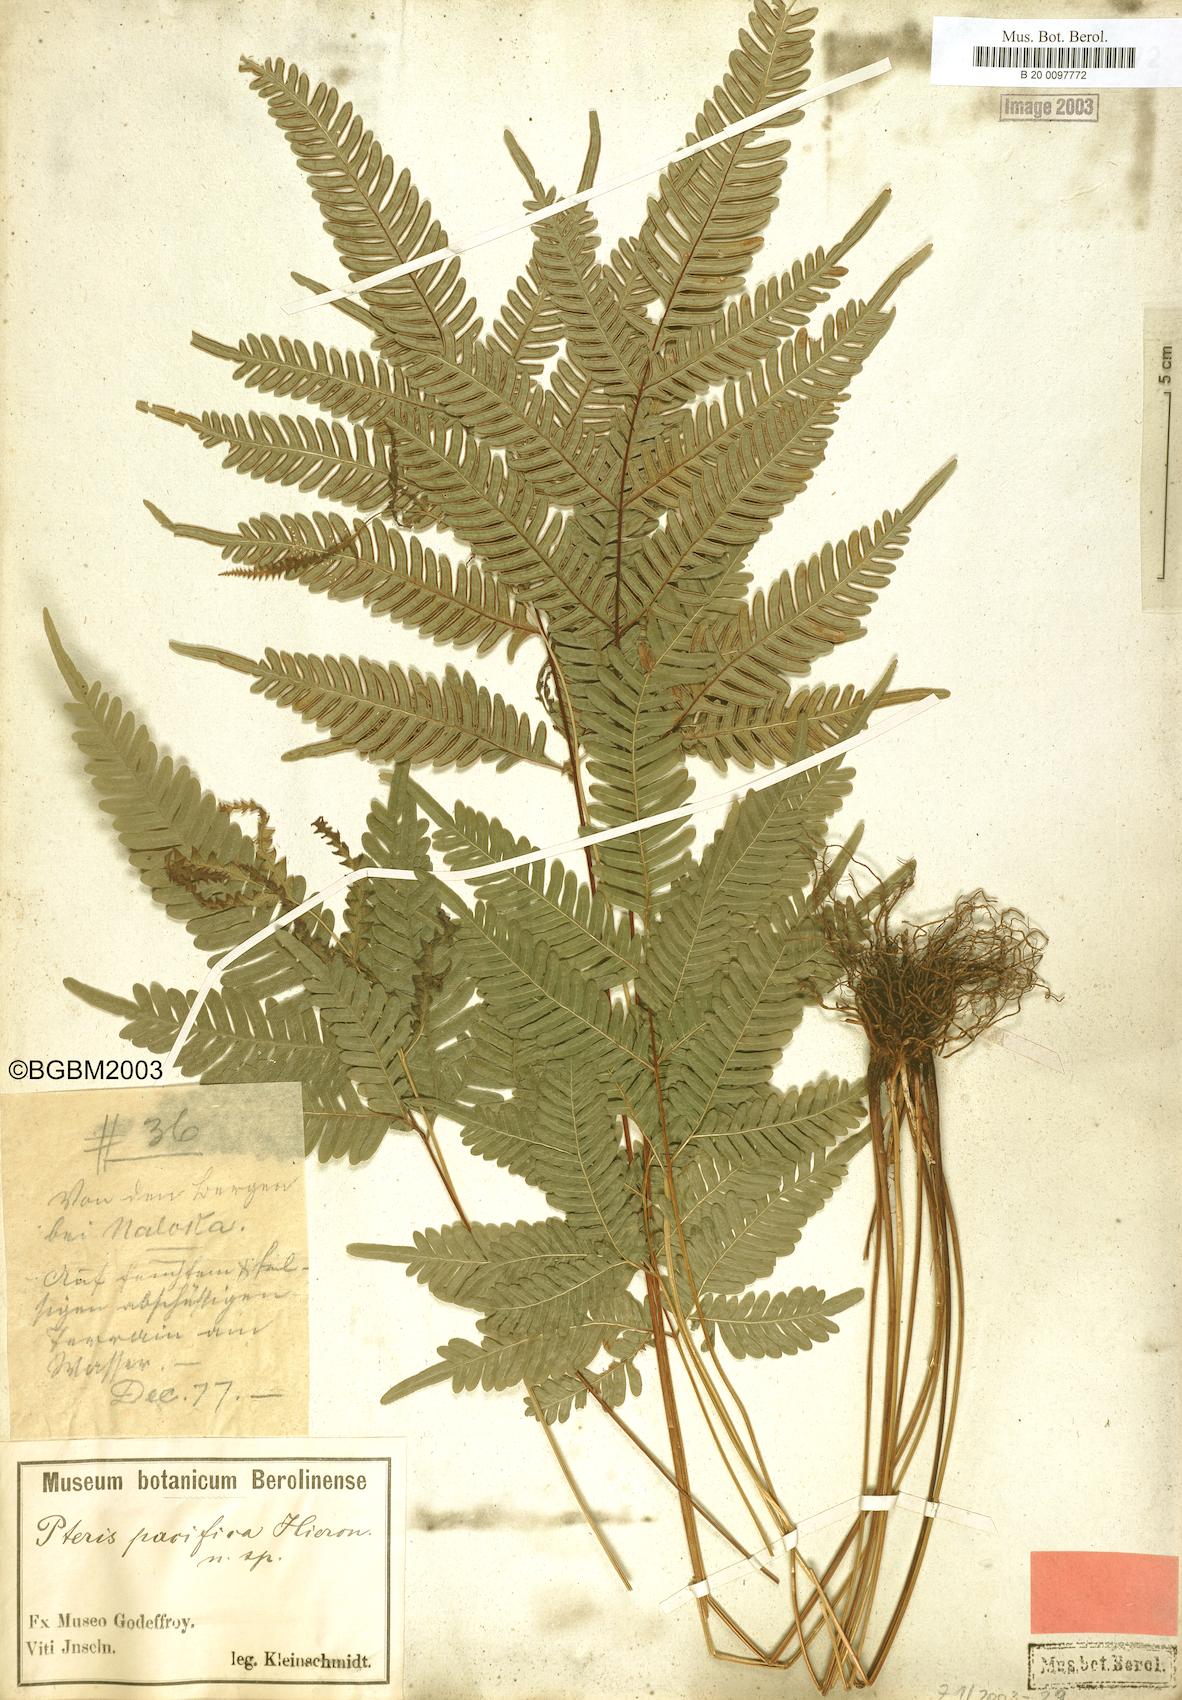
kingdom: Plantae
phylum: Tracheophyta
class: Polypodiopsida
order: Polypodiales
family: Pteridaceae
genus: Pteris
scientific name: Pteris biaurita
